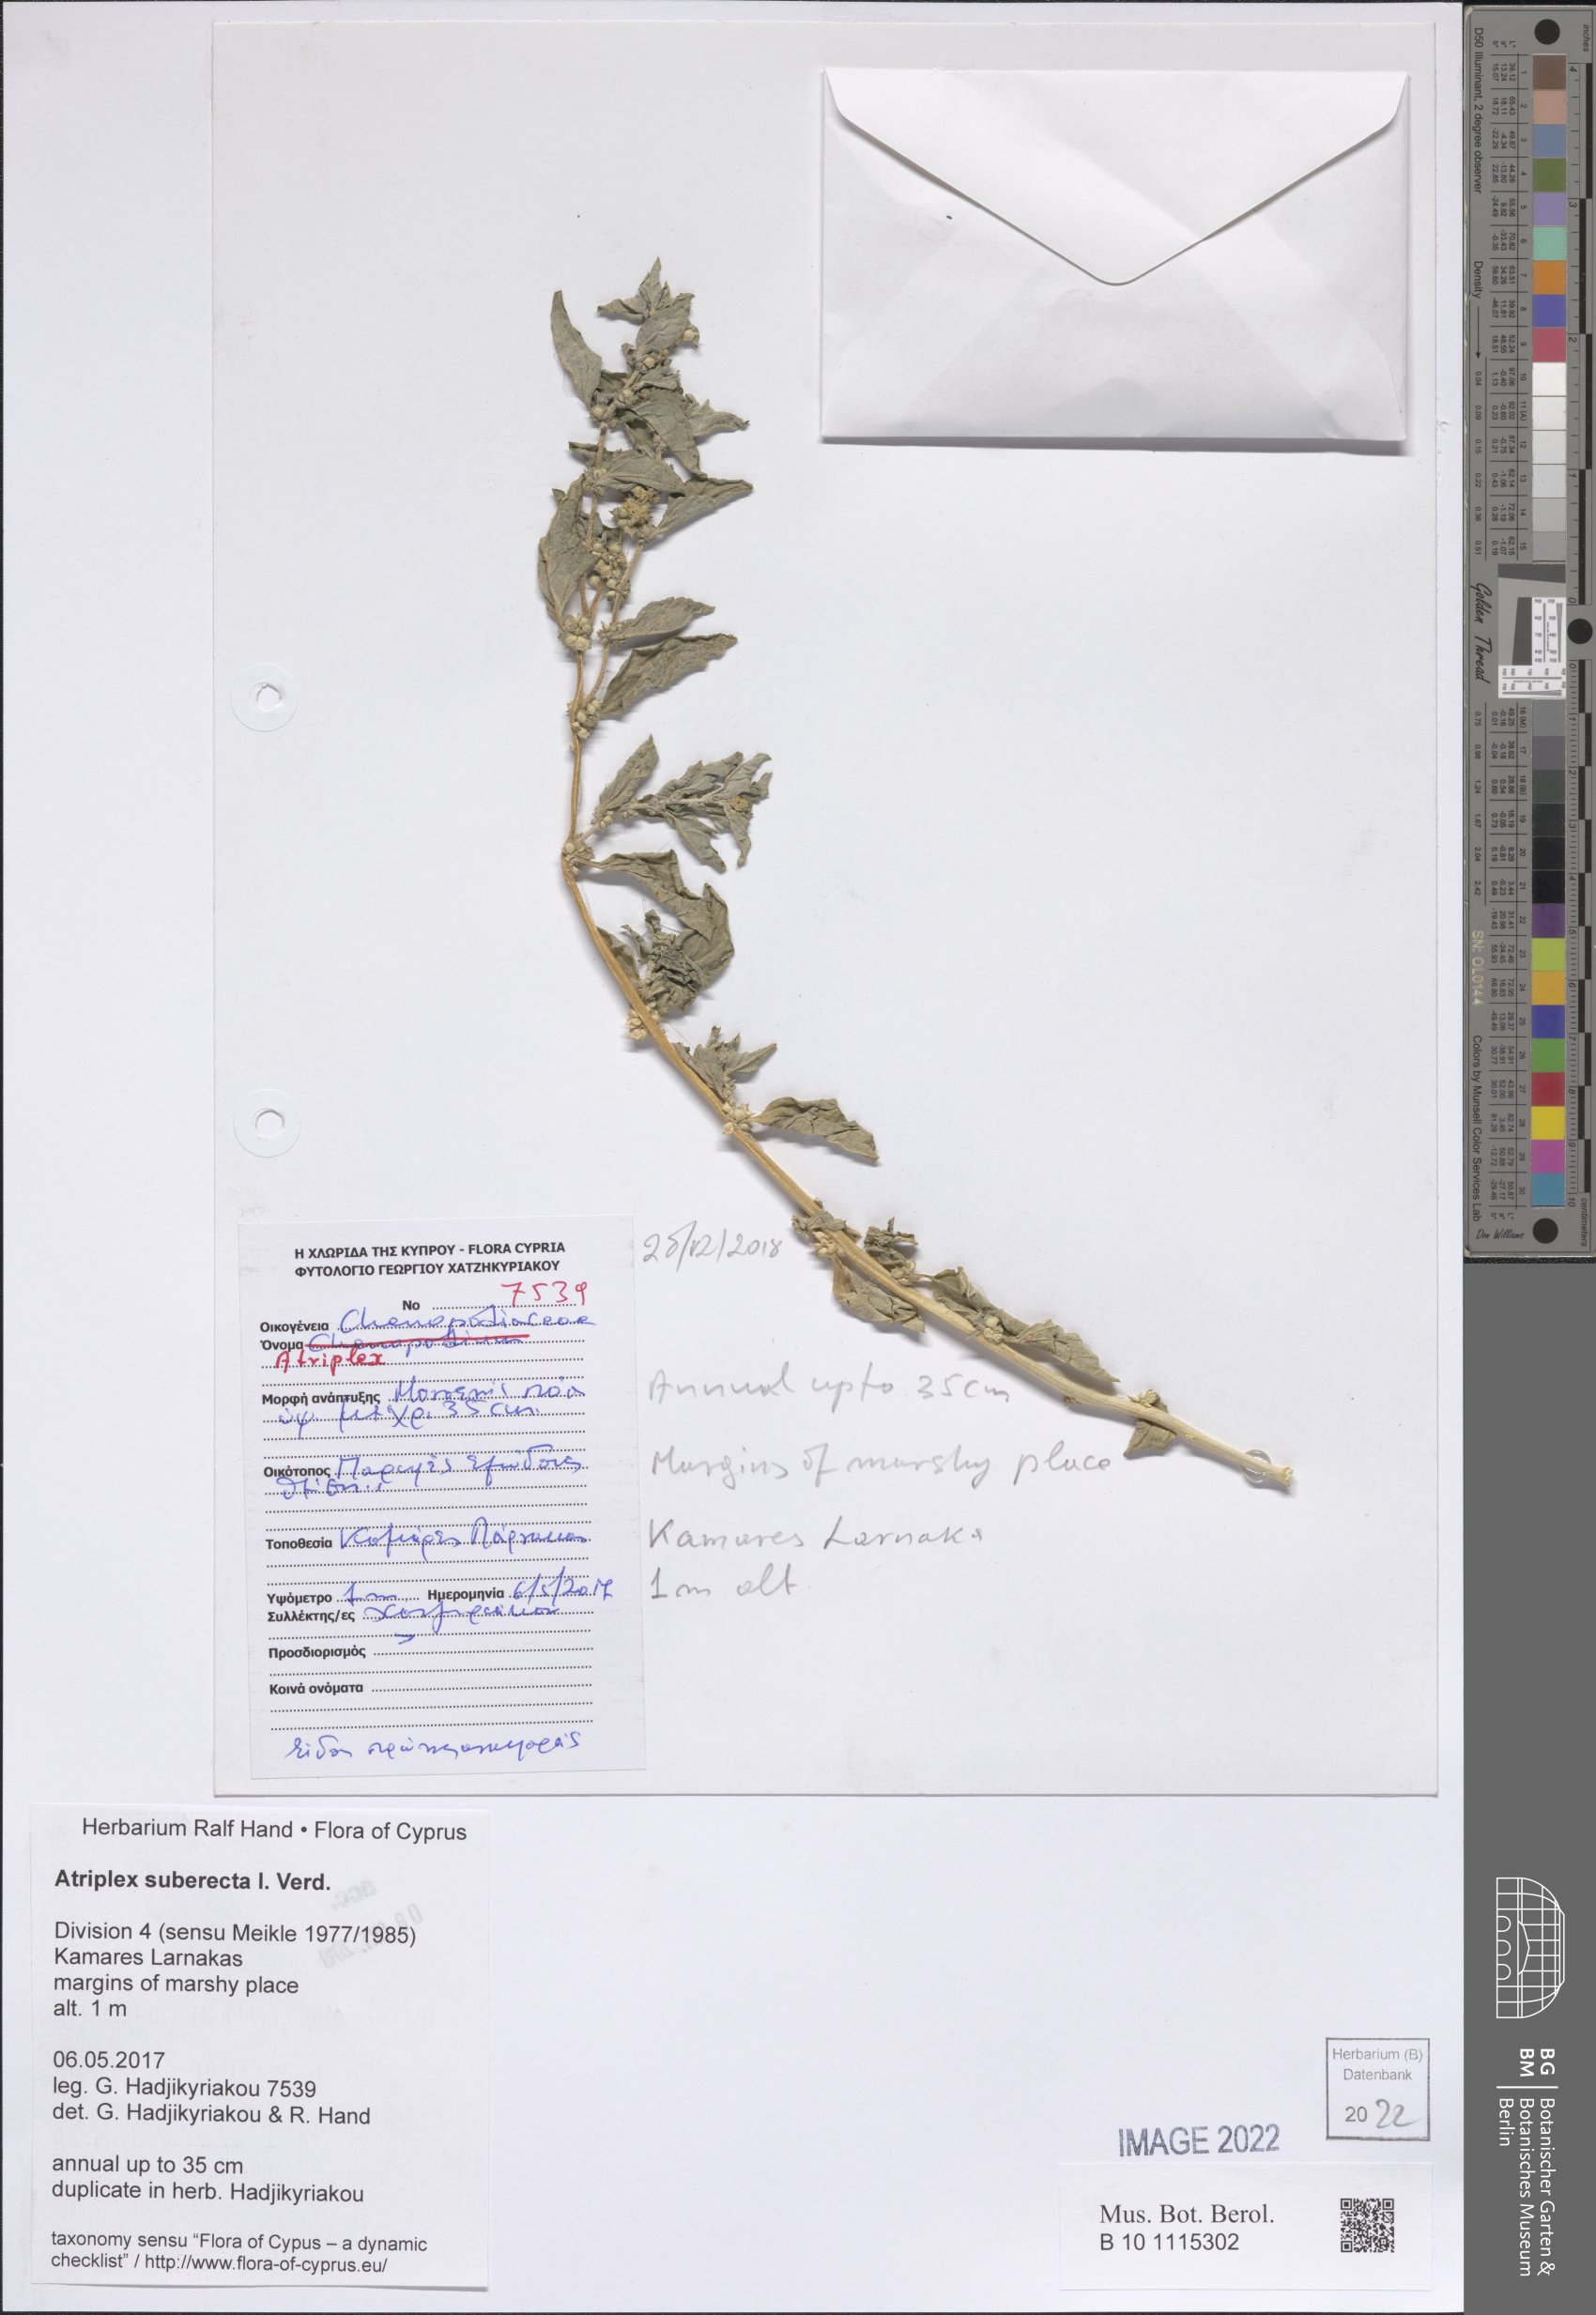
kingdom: Plantae
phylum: Tracheophyta
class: Magnoliopsida
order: Caryophyllales
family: Amaranthaceae
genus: Atriplex
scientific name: Atriplex suberecta
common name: Australian orache
